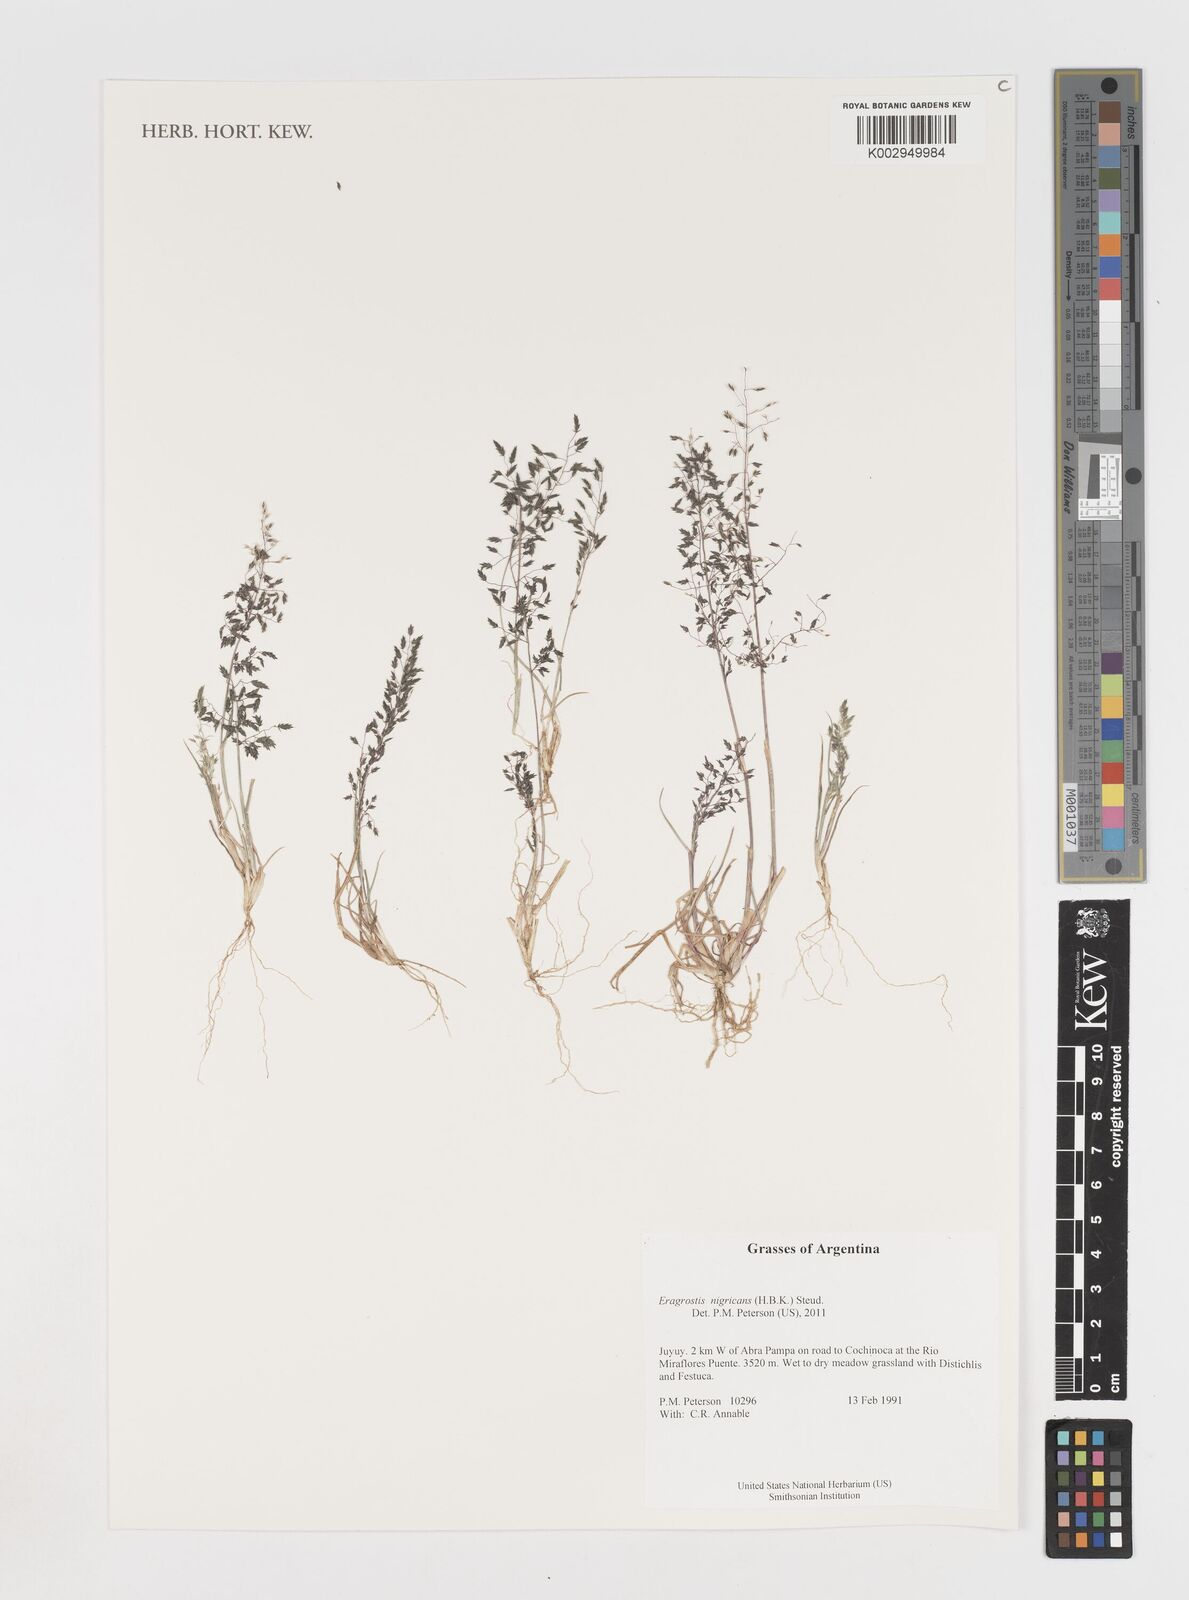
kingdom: Plantae
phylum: Tracheophyta
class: Liliopsida
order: Poales
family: Poaceae
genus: Eragrostis
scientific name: Eragrostis nigricans
